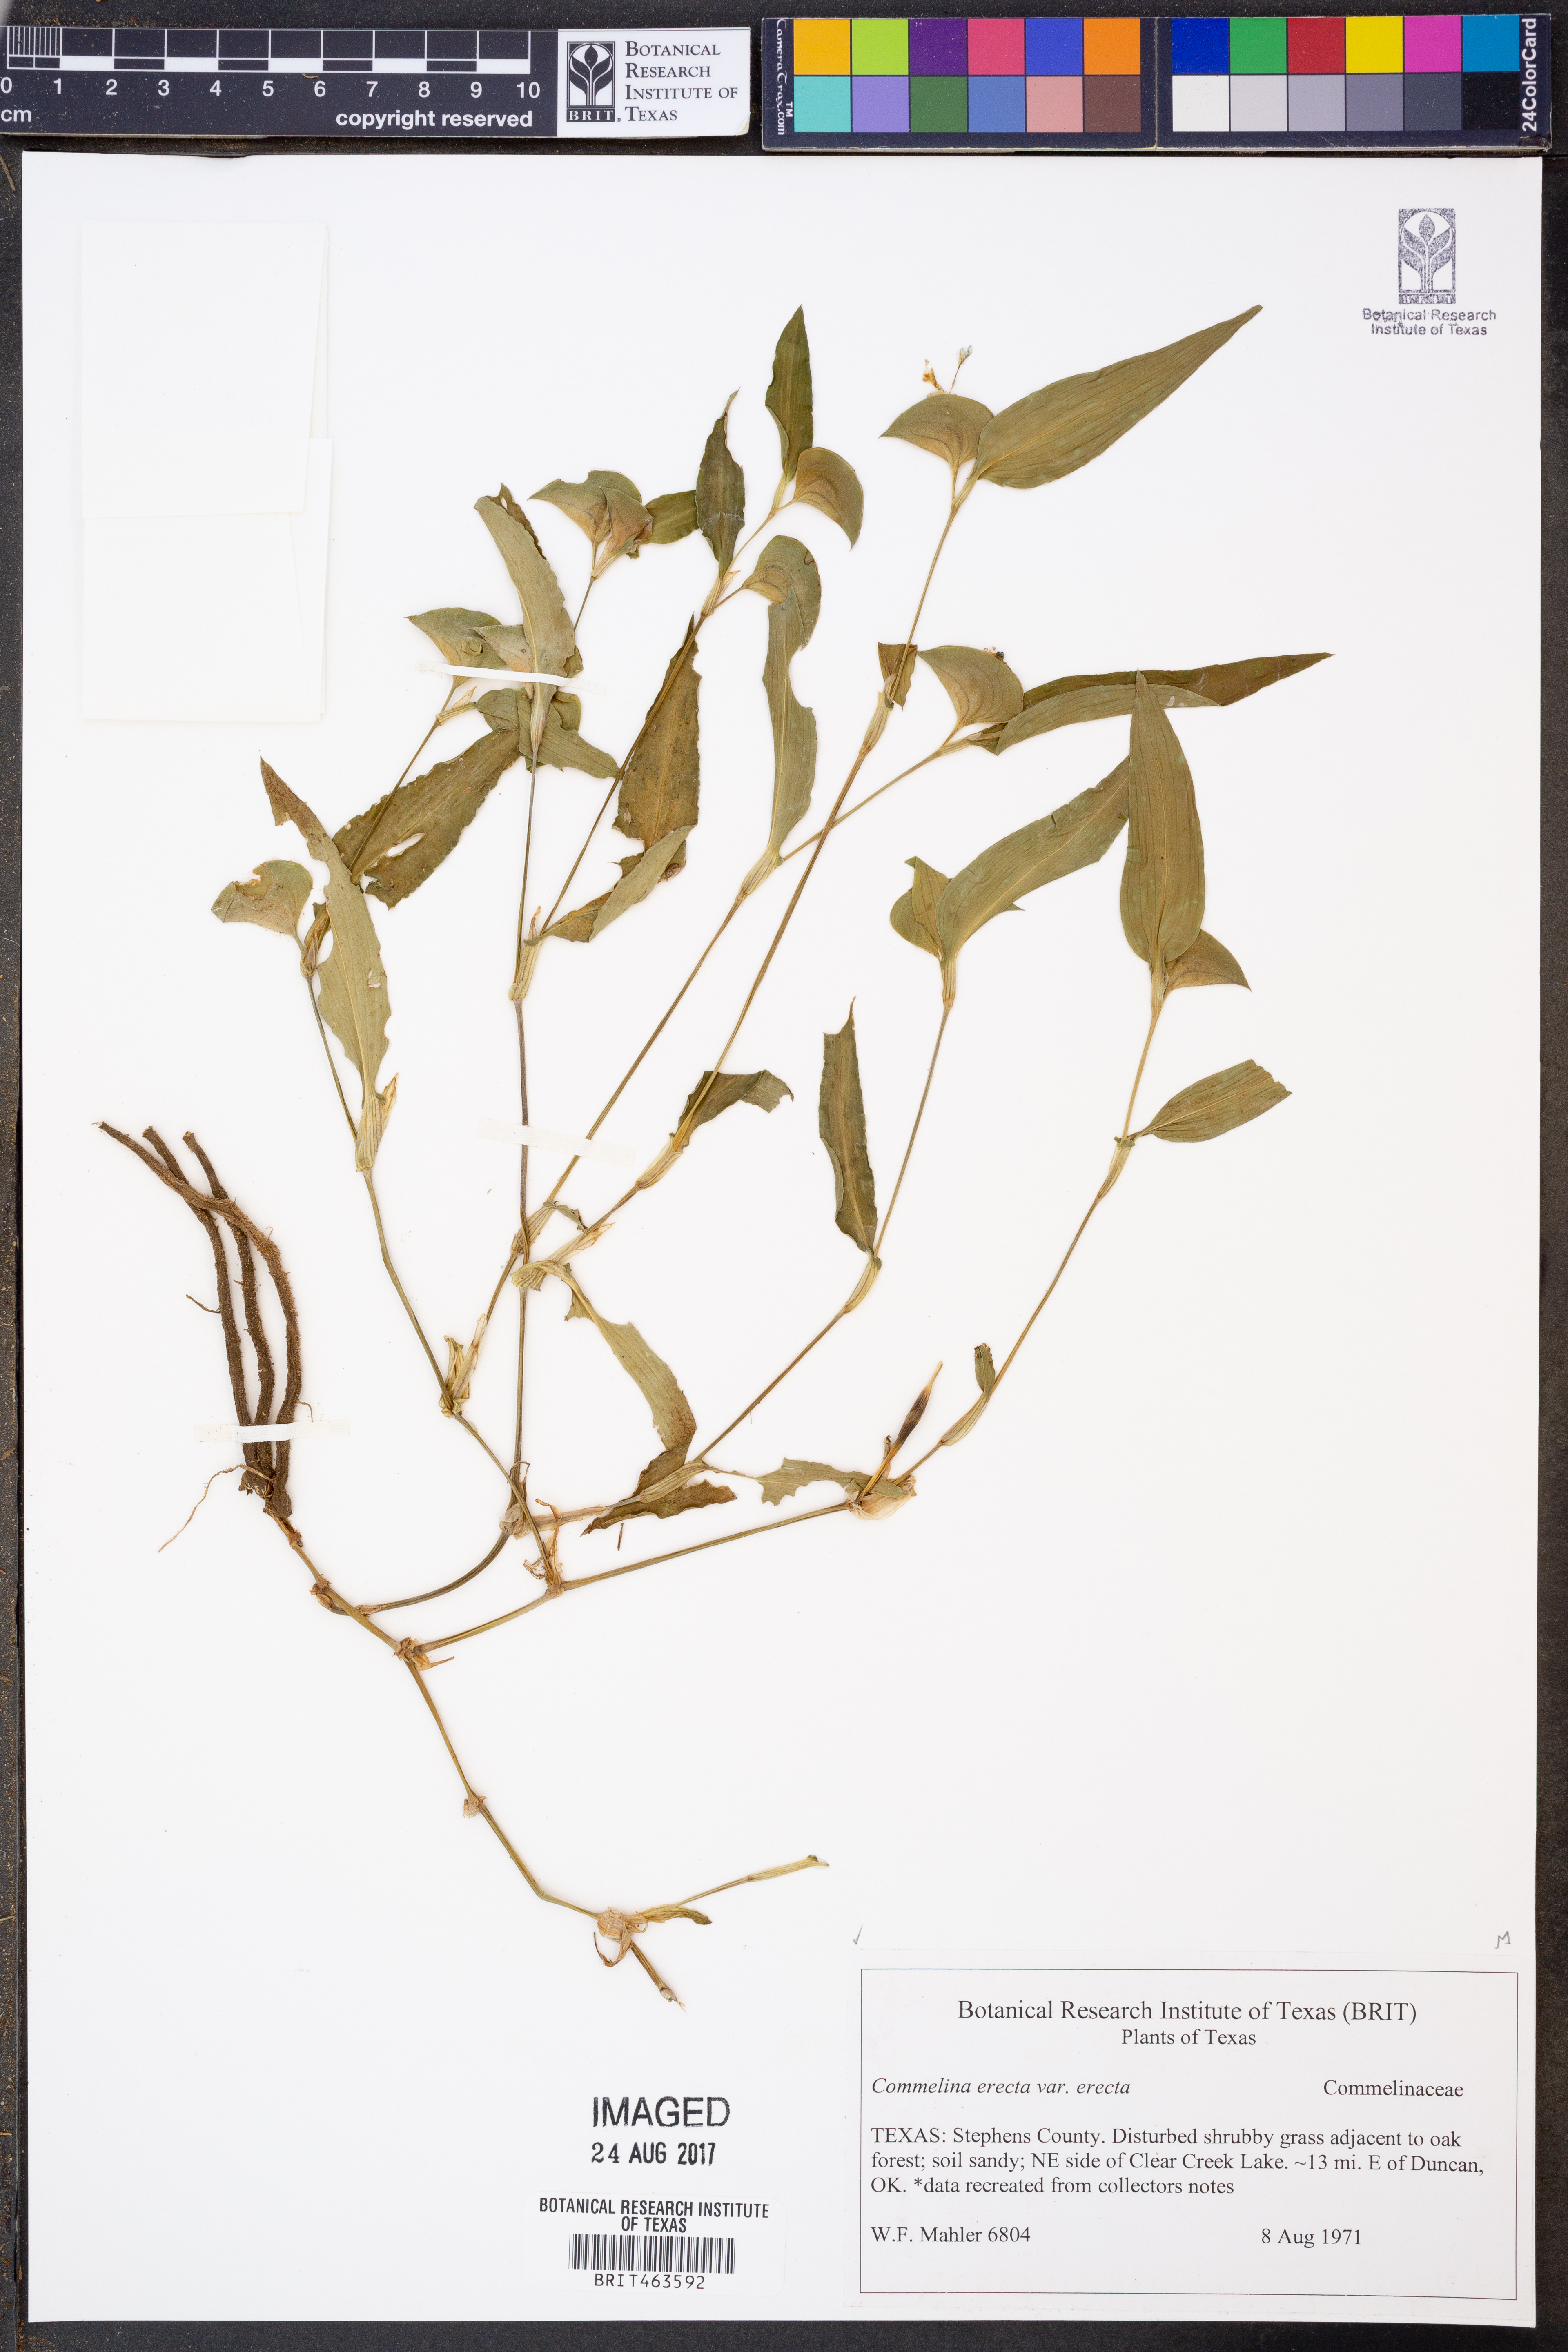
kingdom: Plantae
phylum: Tracheophyta
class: Liliopsida
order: Commelinales
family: Commelinaceae
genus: Commelina
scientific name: Commelina erecta
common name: Blousel blommetjie
